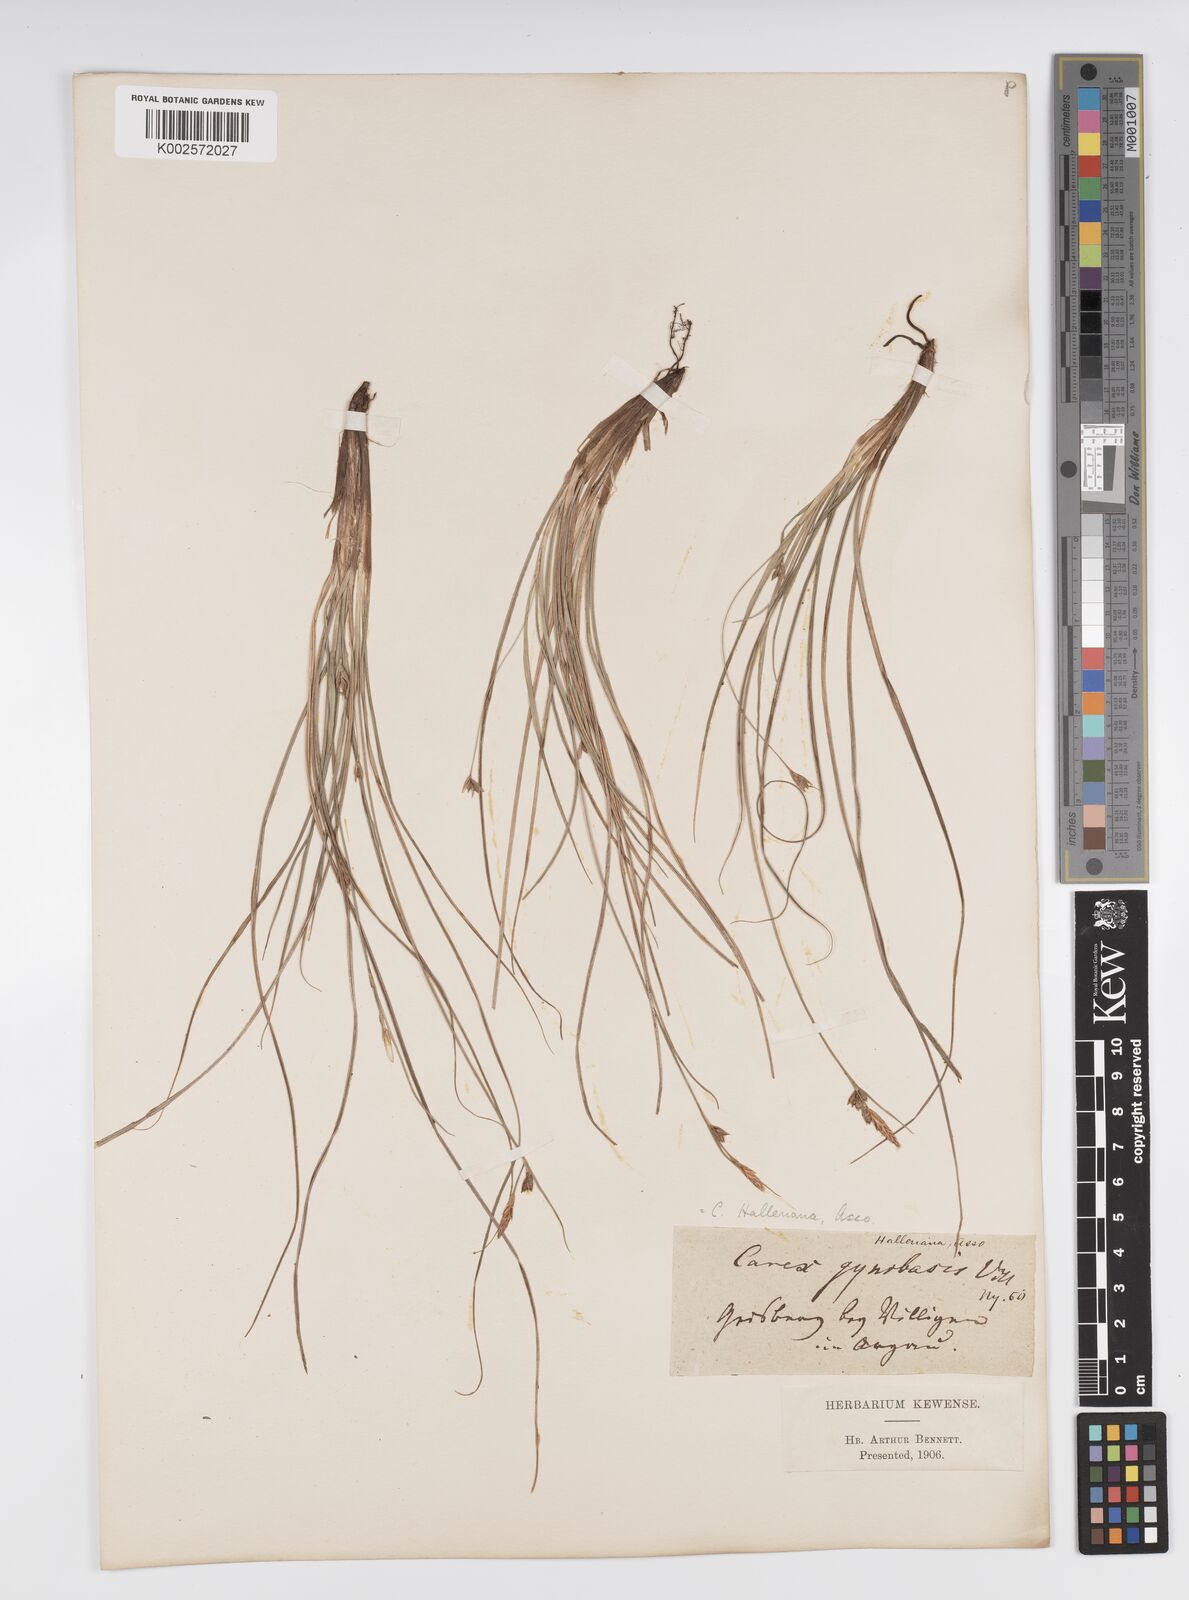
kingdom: Plantae
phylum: Tracheophyta
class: Liliopsida
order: Poales
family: Cyperaceae
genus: Carex
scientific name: Carex halleriana
